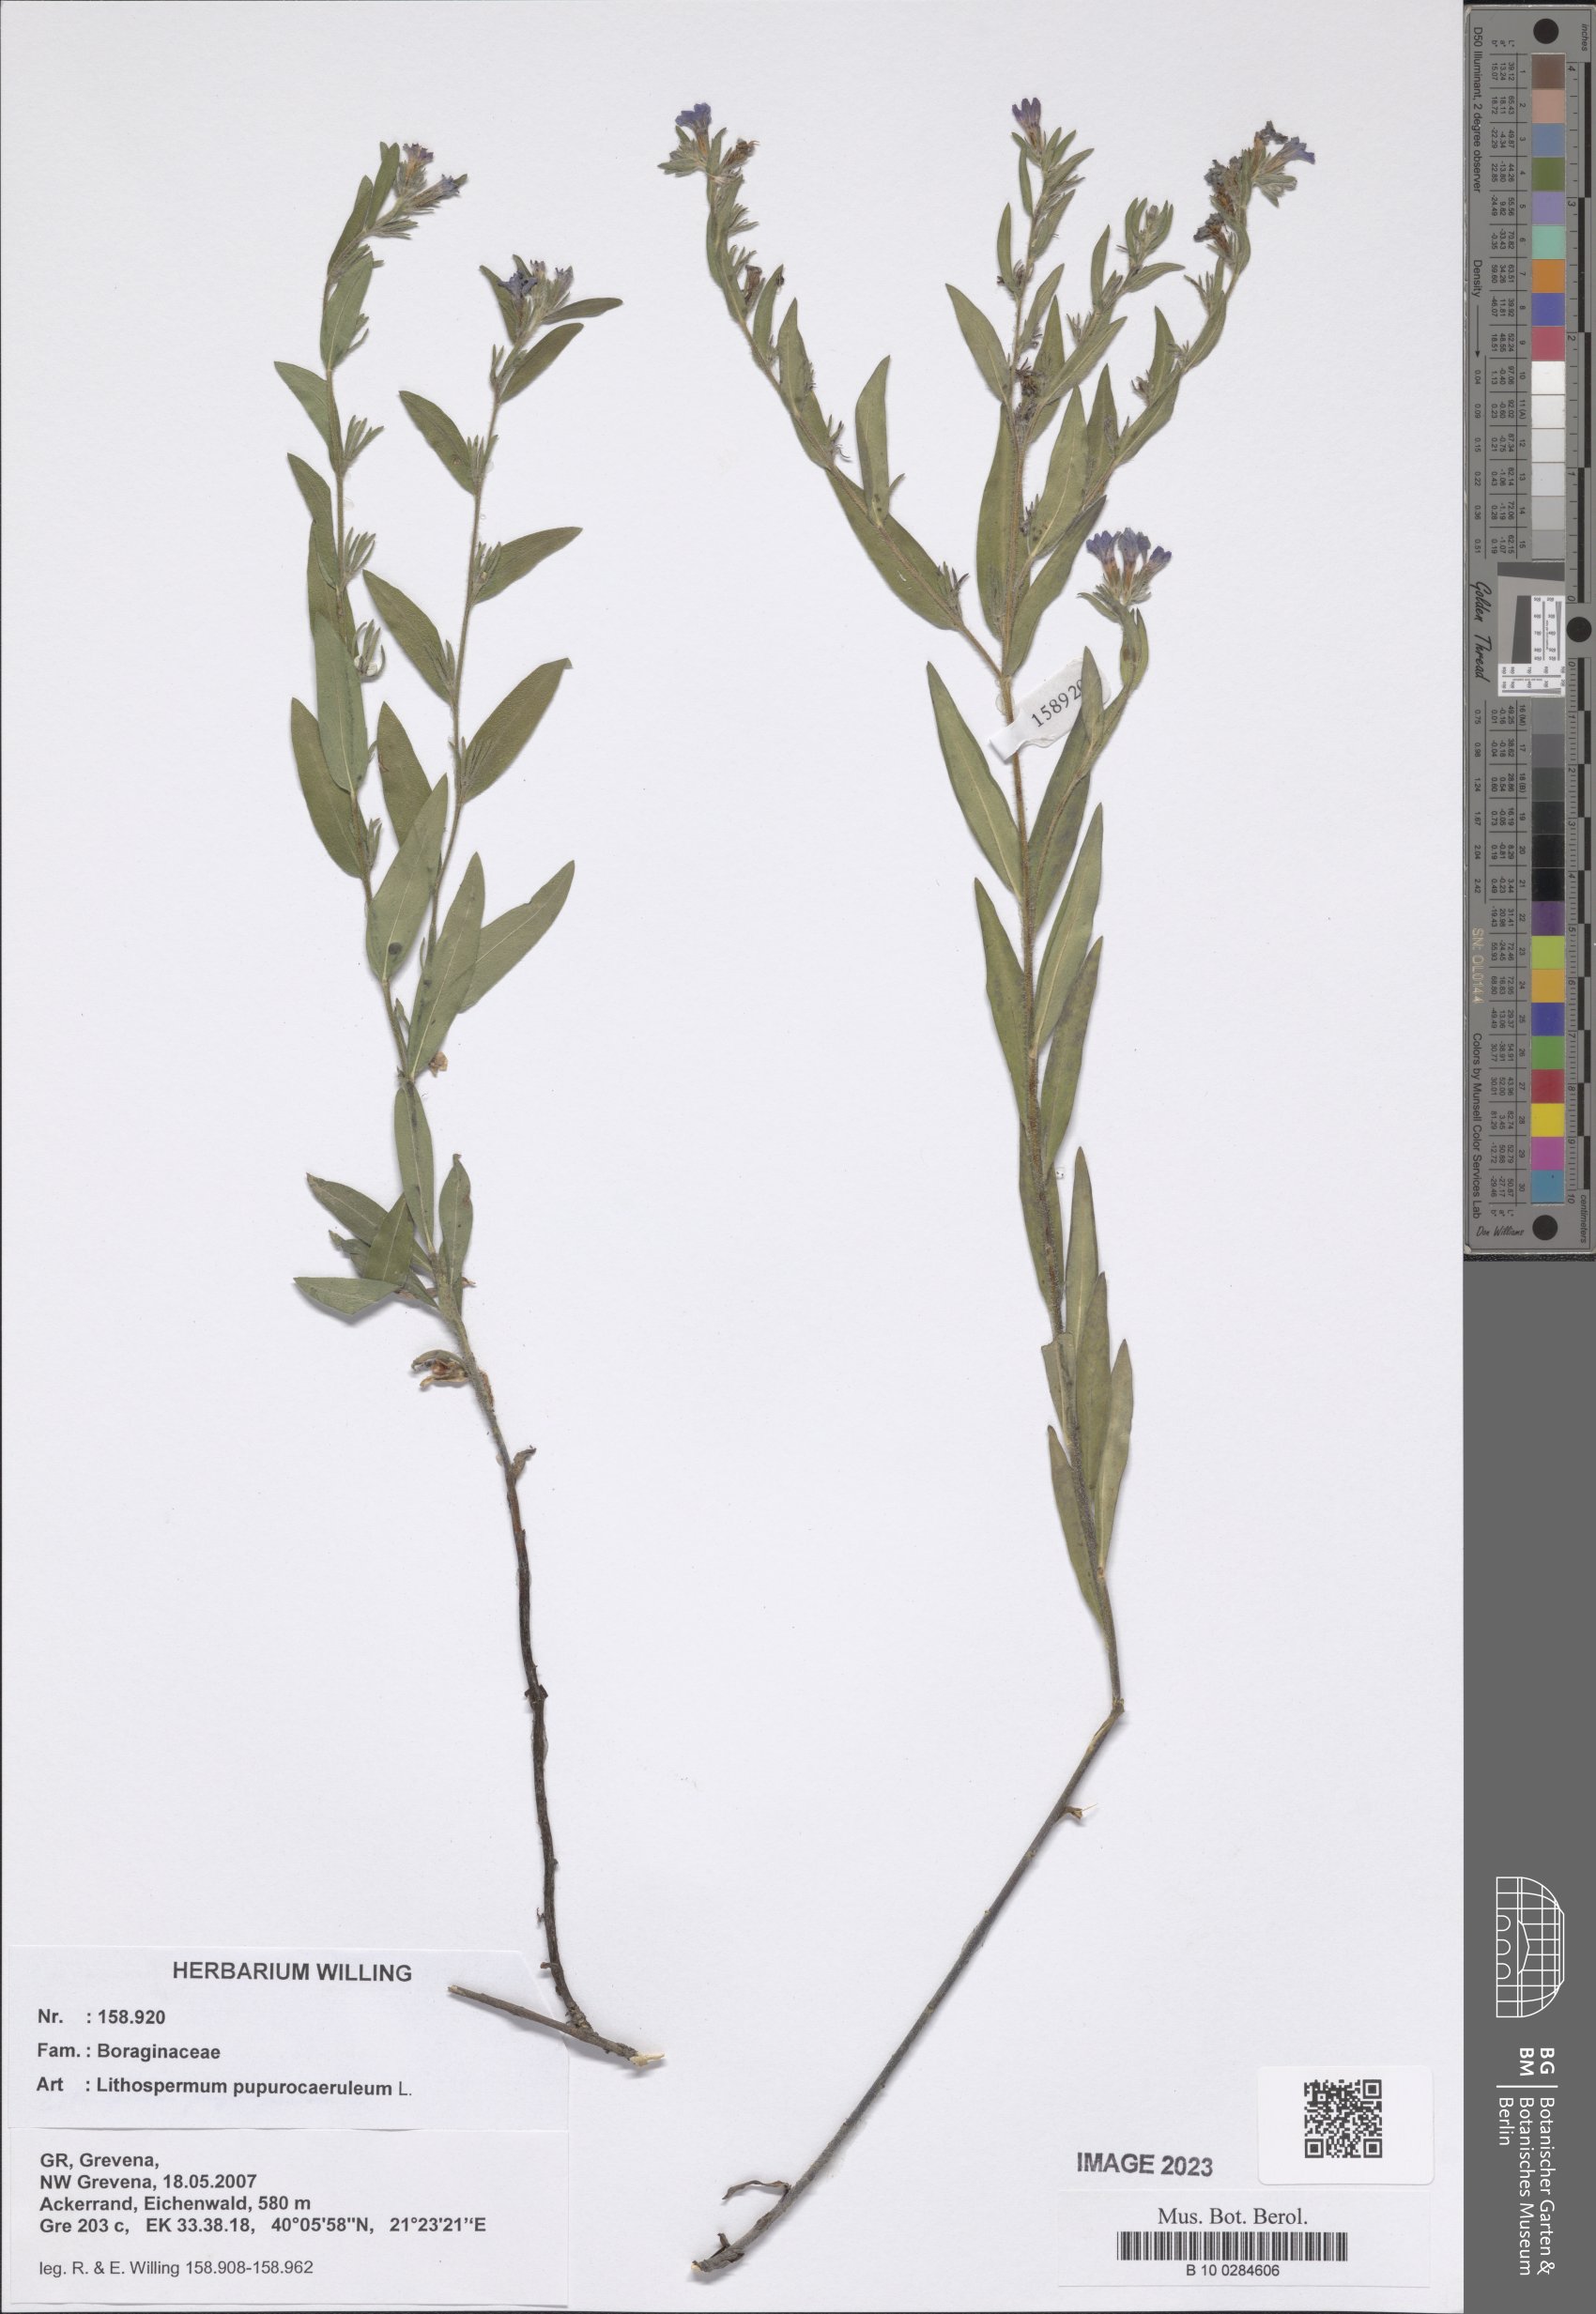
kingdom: Plantae
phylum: Tracheophyta
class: Magnoliopsida
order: Boraginales
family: Boraginaceae
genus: Aegonychon
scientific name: Aegonychon purpurocaeruleum
